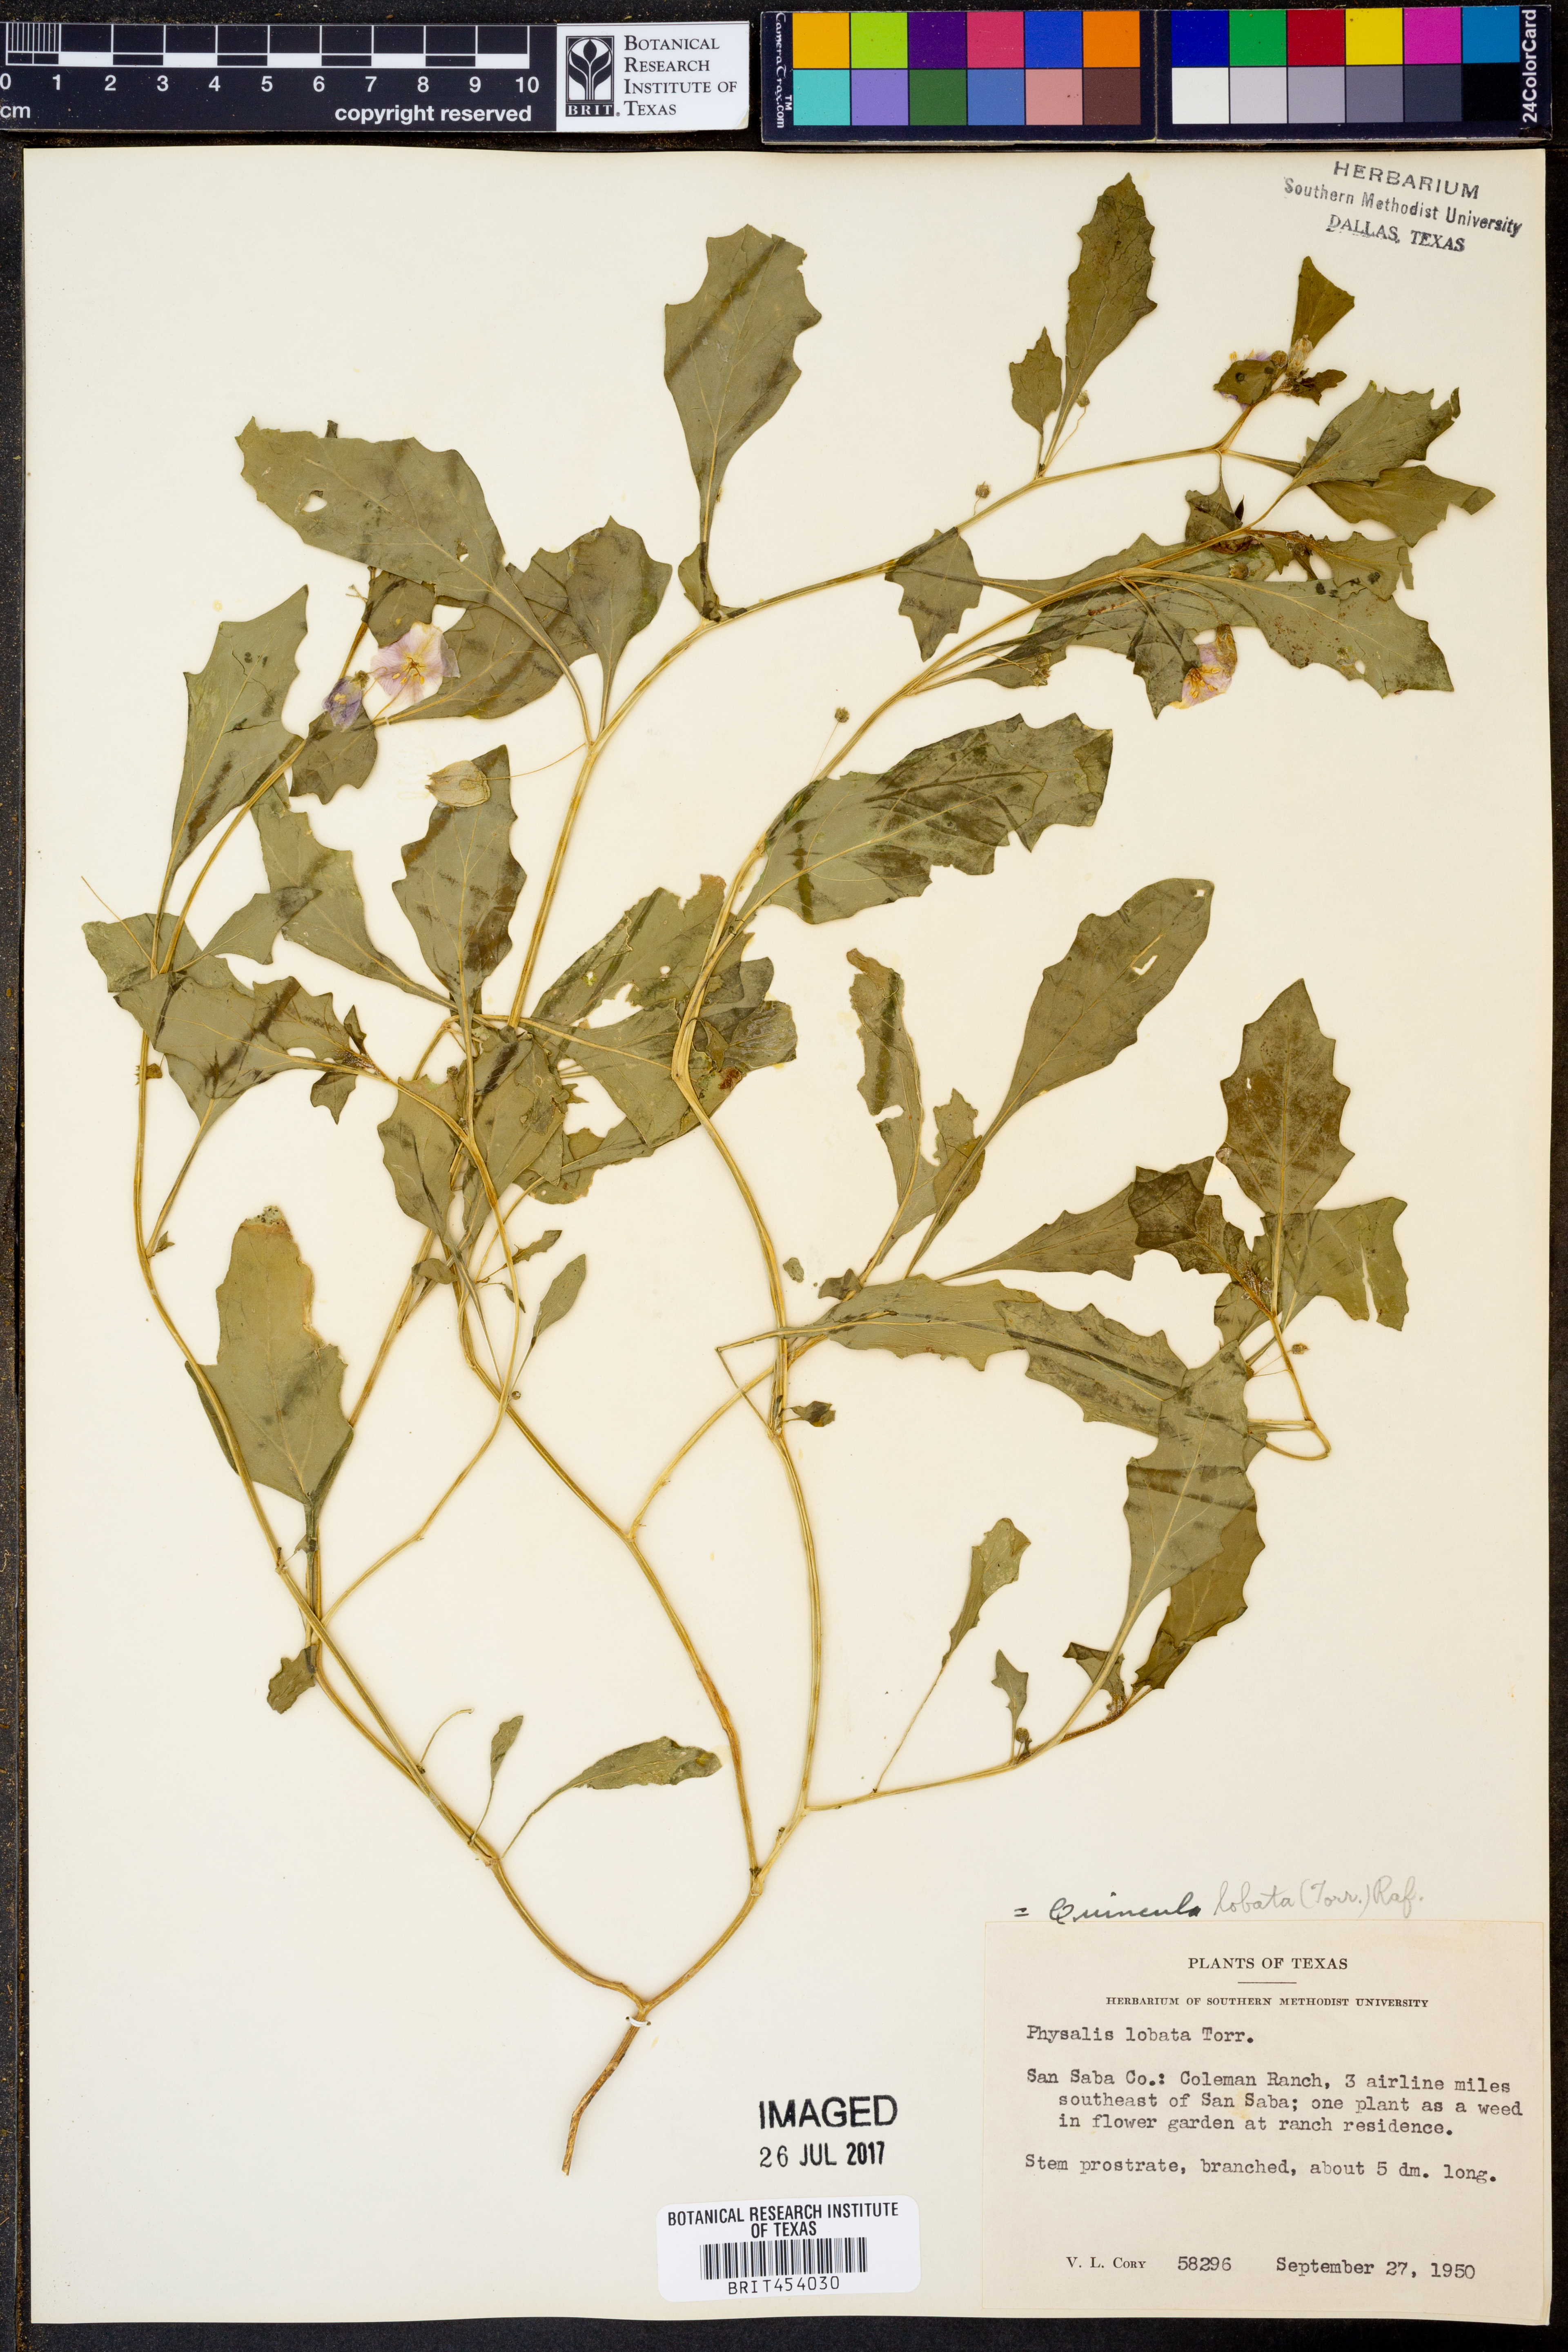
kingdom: Plantae
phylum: Tracheophyta
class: Magnoliopsida
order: Solanales
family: Solanaceae
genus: Quincula
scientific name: Quincula lobata
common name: Purple-ground-cherry
